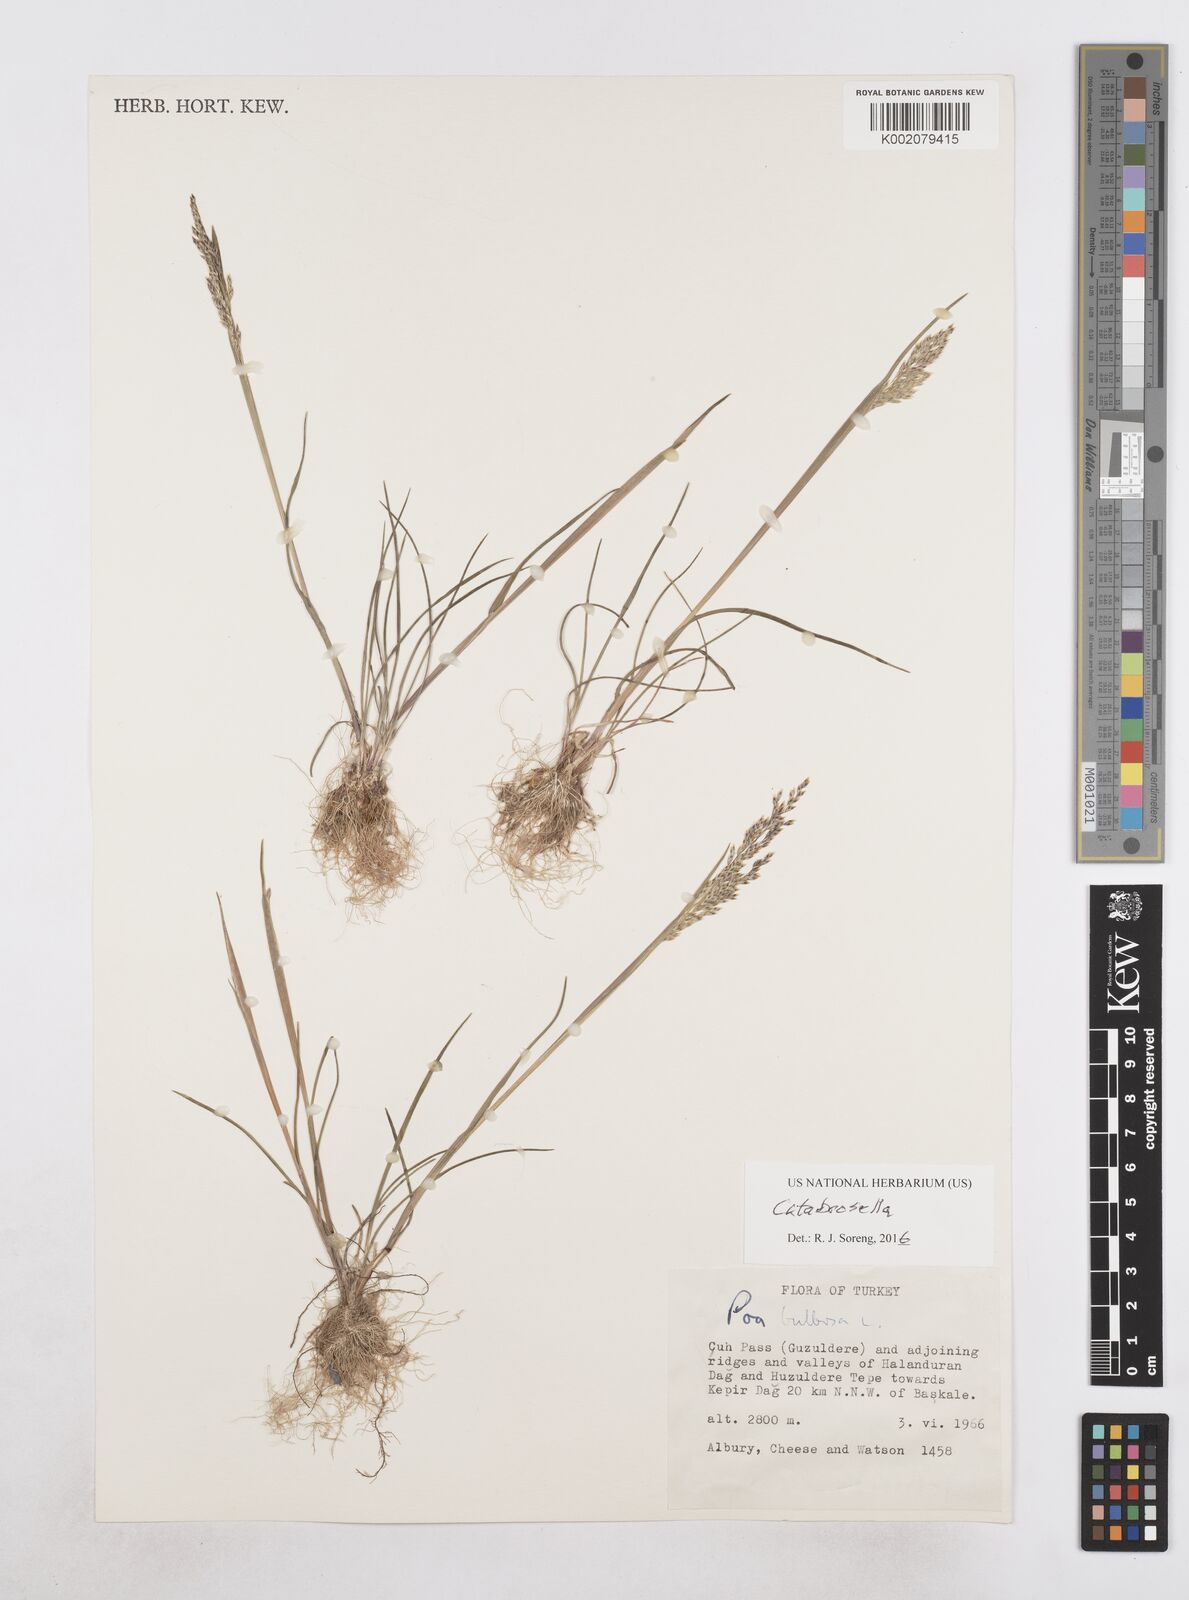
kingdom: Plantae
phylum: Tracheophyta
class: Liliopsida
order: Poales
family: Poaceae
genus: Colpodium
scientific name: Colpodium
